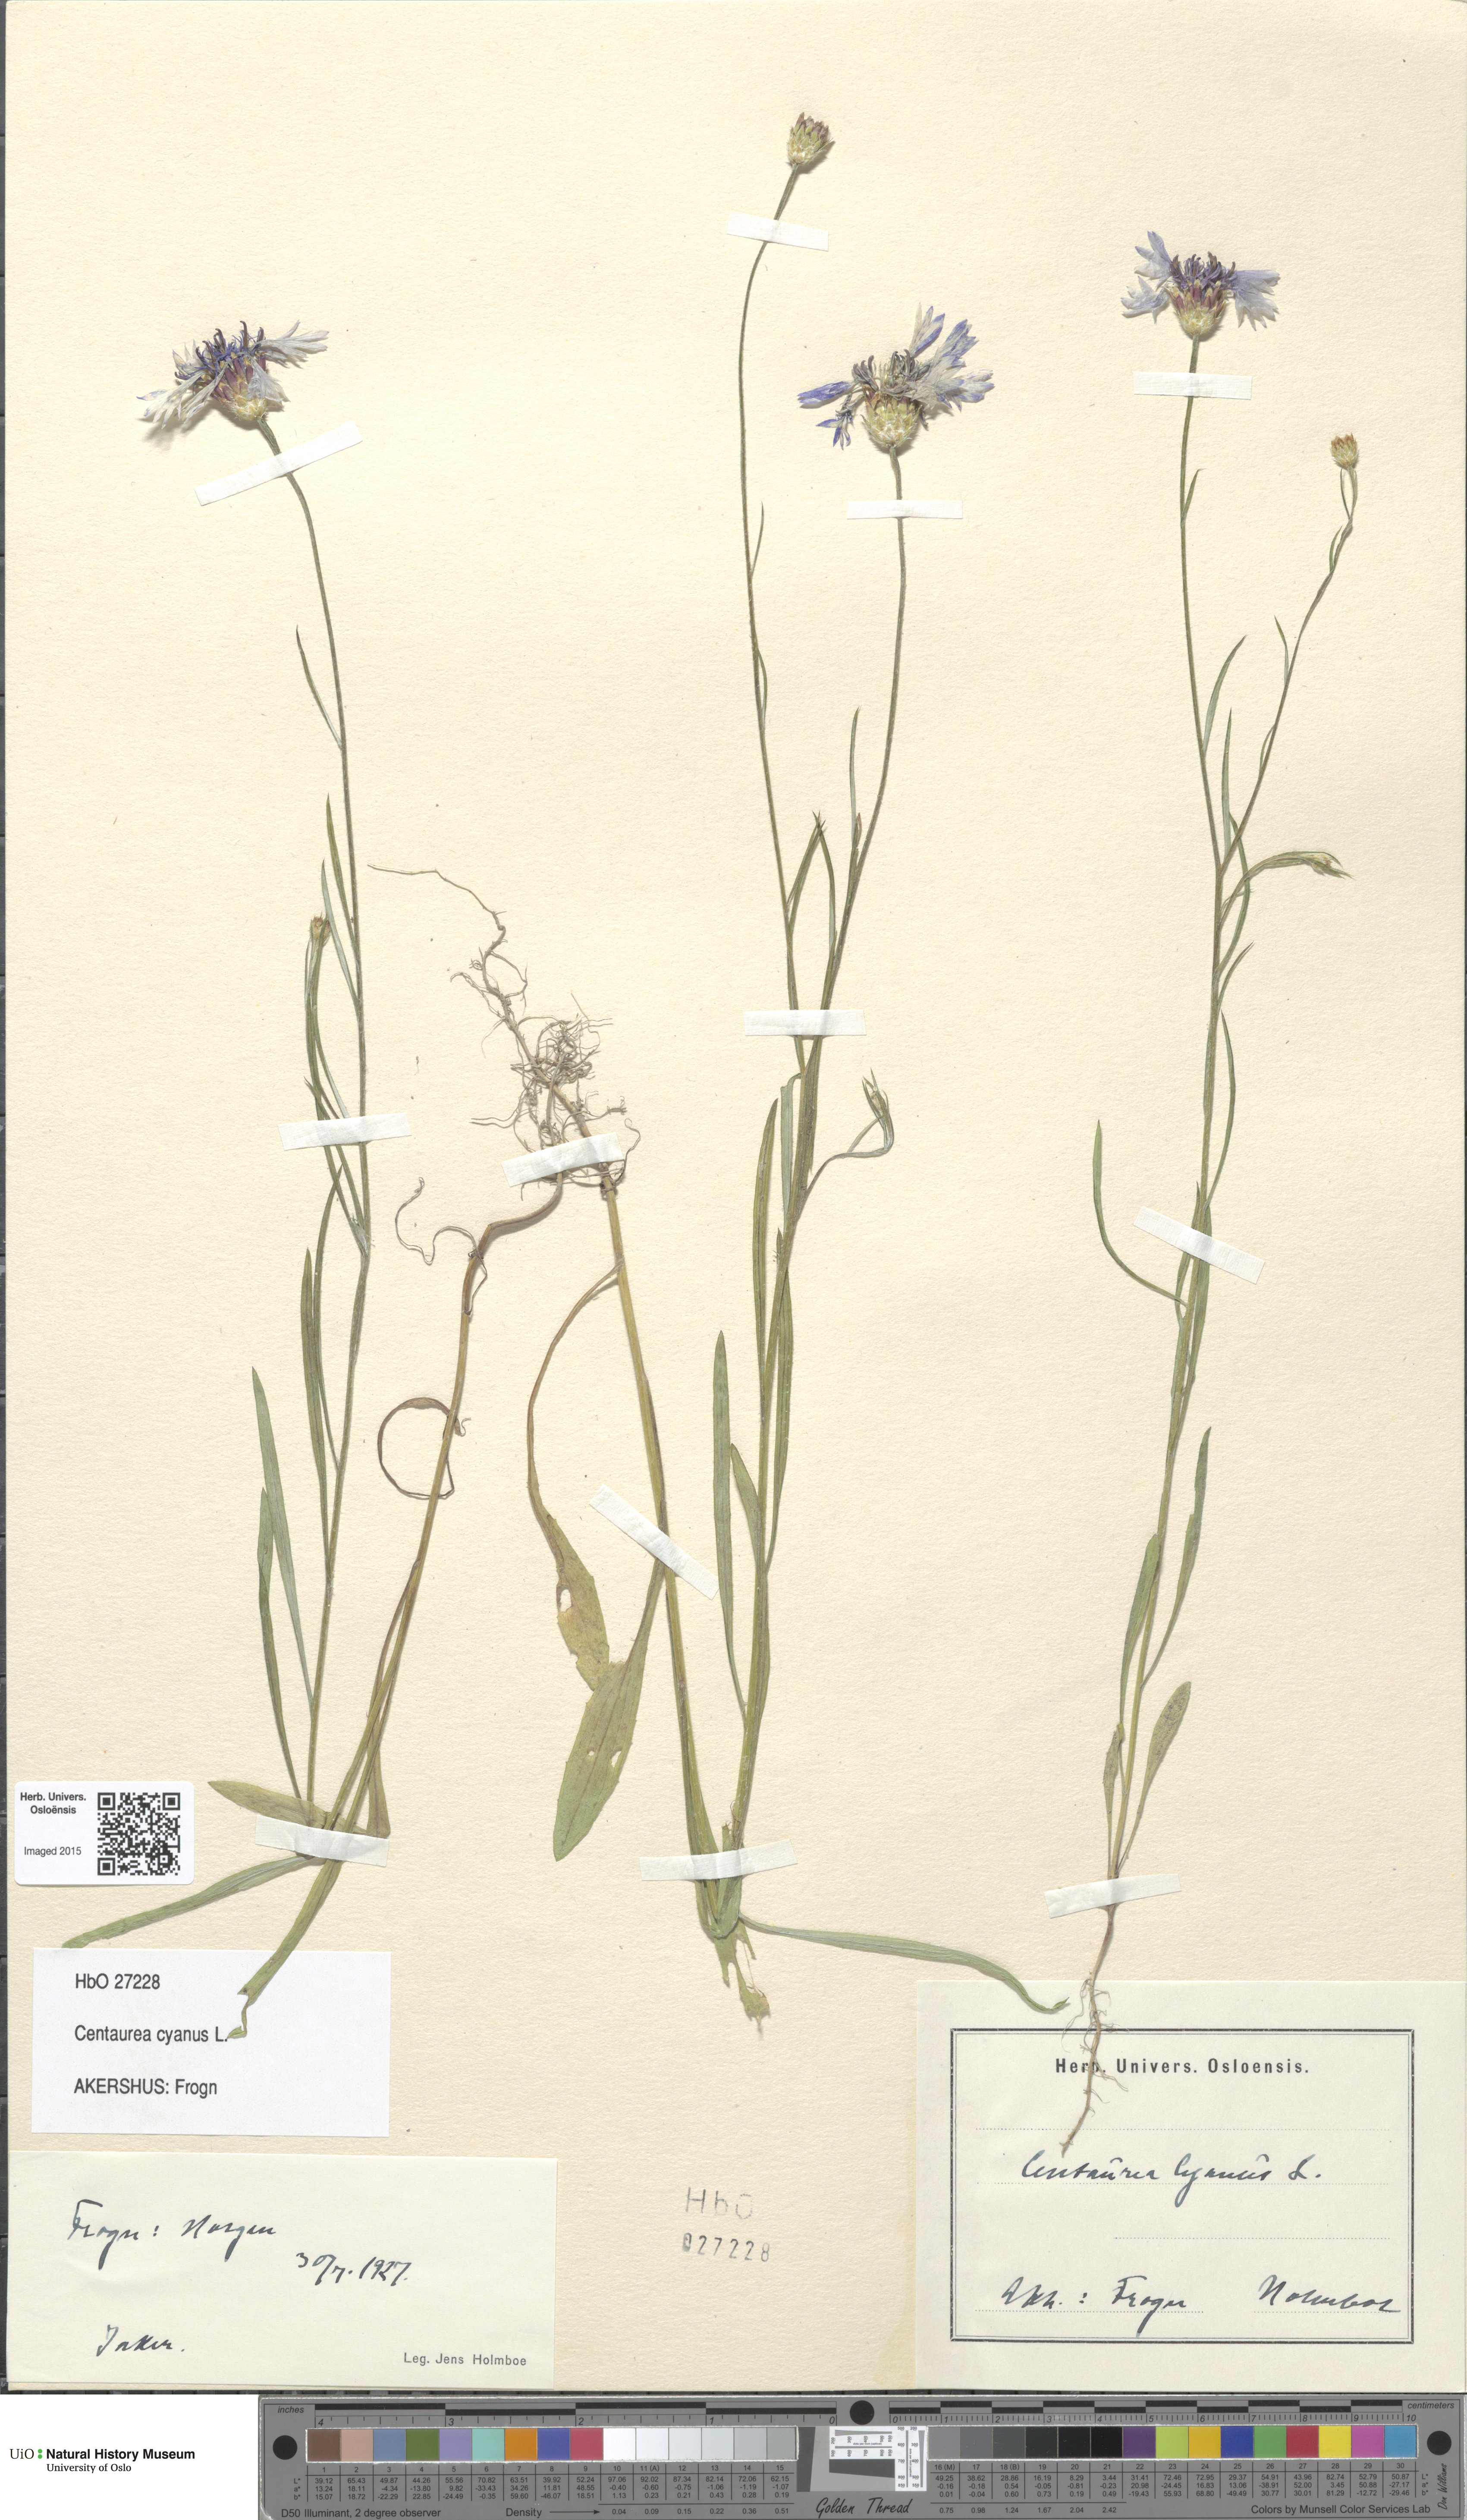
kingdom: Plantae
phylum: Tracheophyta
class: Magnoliopsida
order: Asterales
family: Asteraceae
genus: Centaurea
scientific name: Centaurea cyanus
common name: Cornflower
